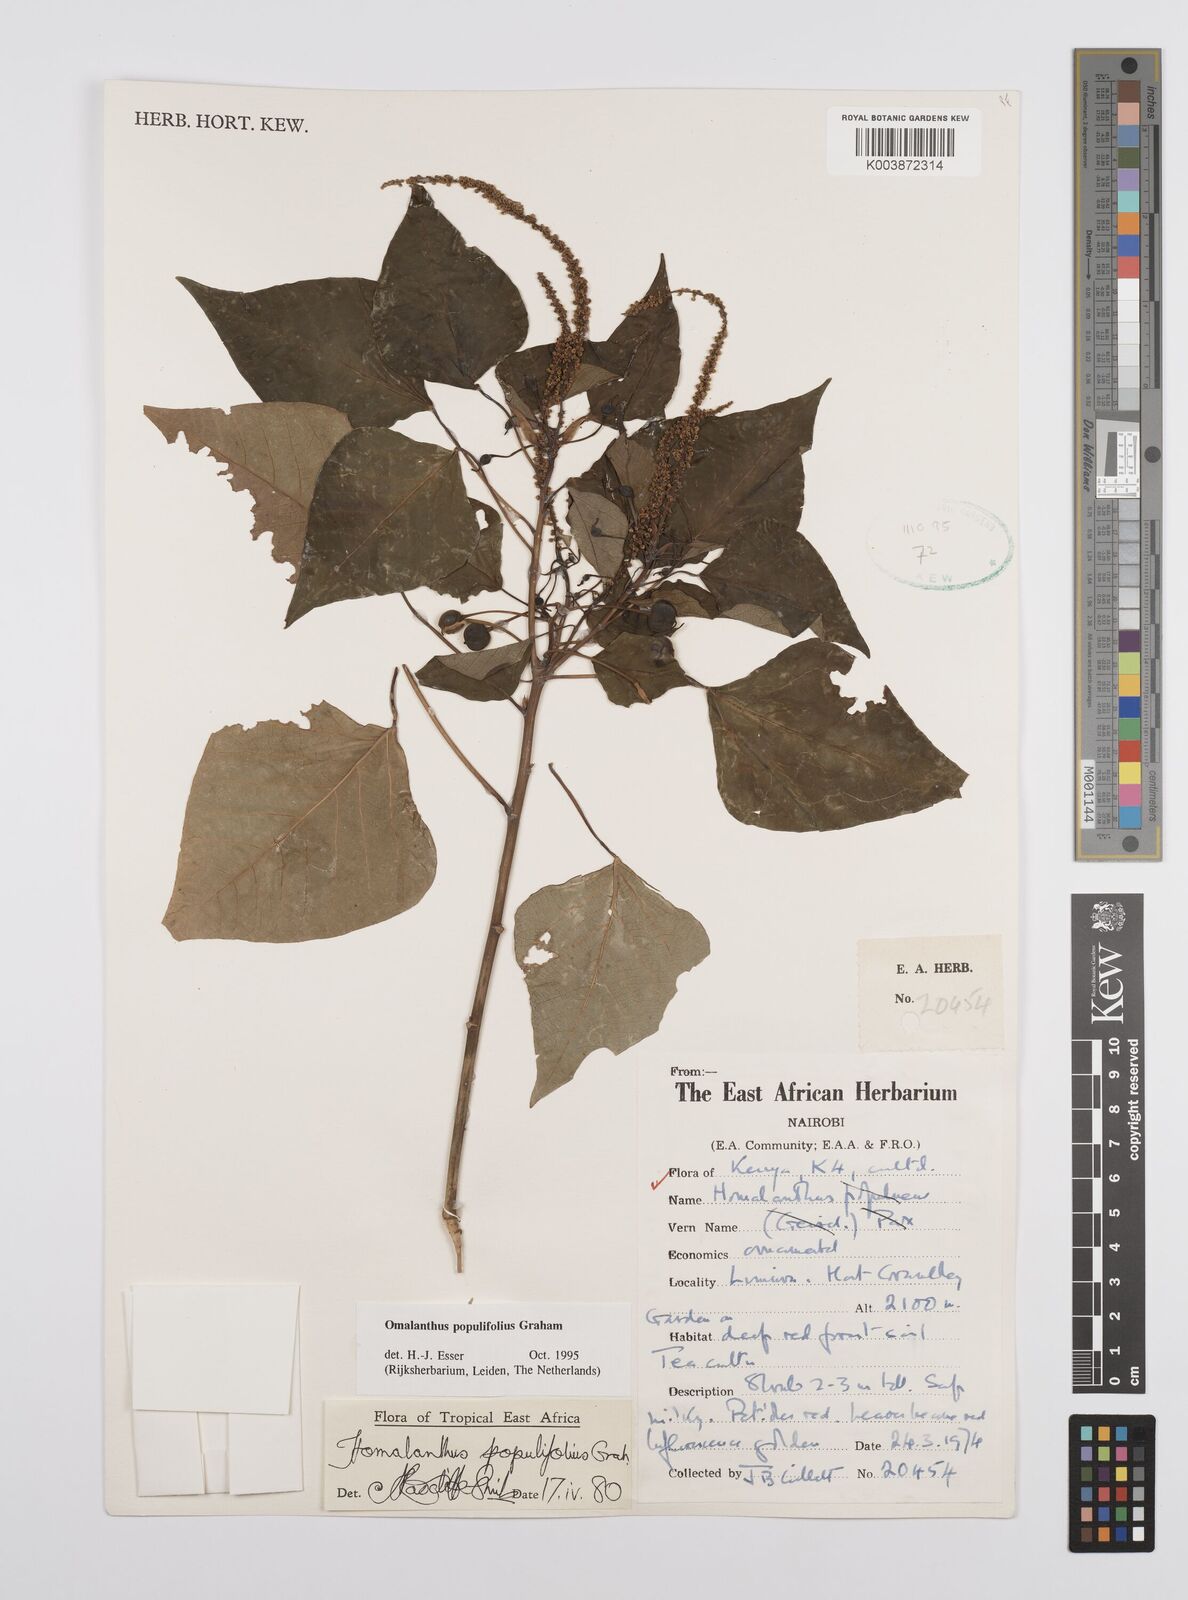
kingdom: Plantae
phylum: Tracheophyta
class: Magnoliopsida
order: Malpighiales
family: Euphorbiaceae
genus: Homalanthus
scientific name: Homalanthus populifolius
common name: Queensland poplar
